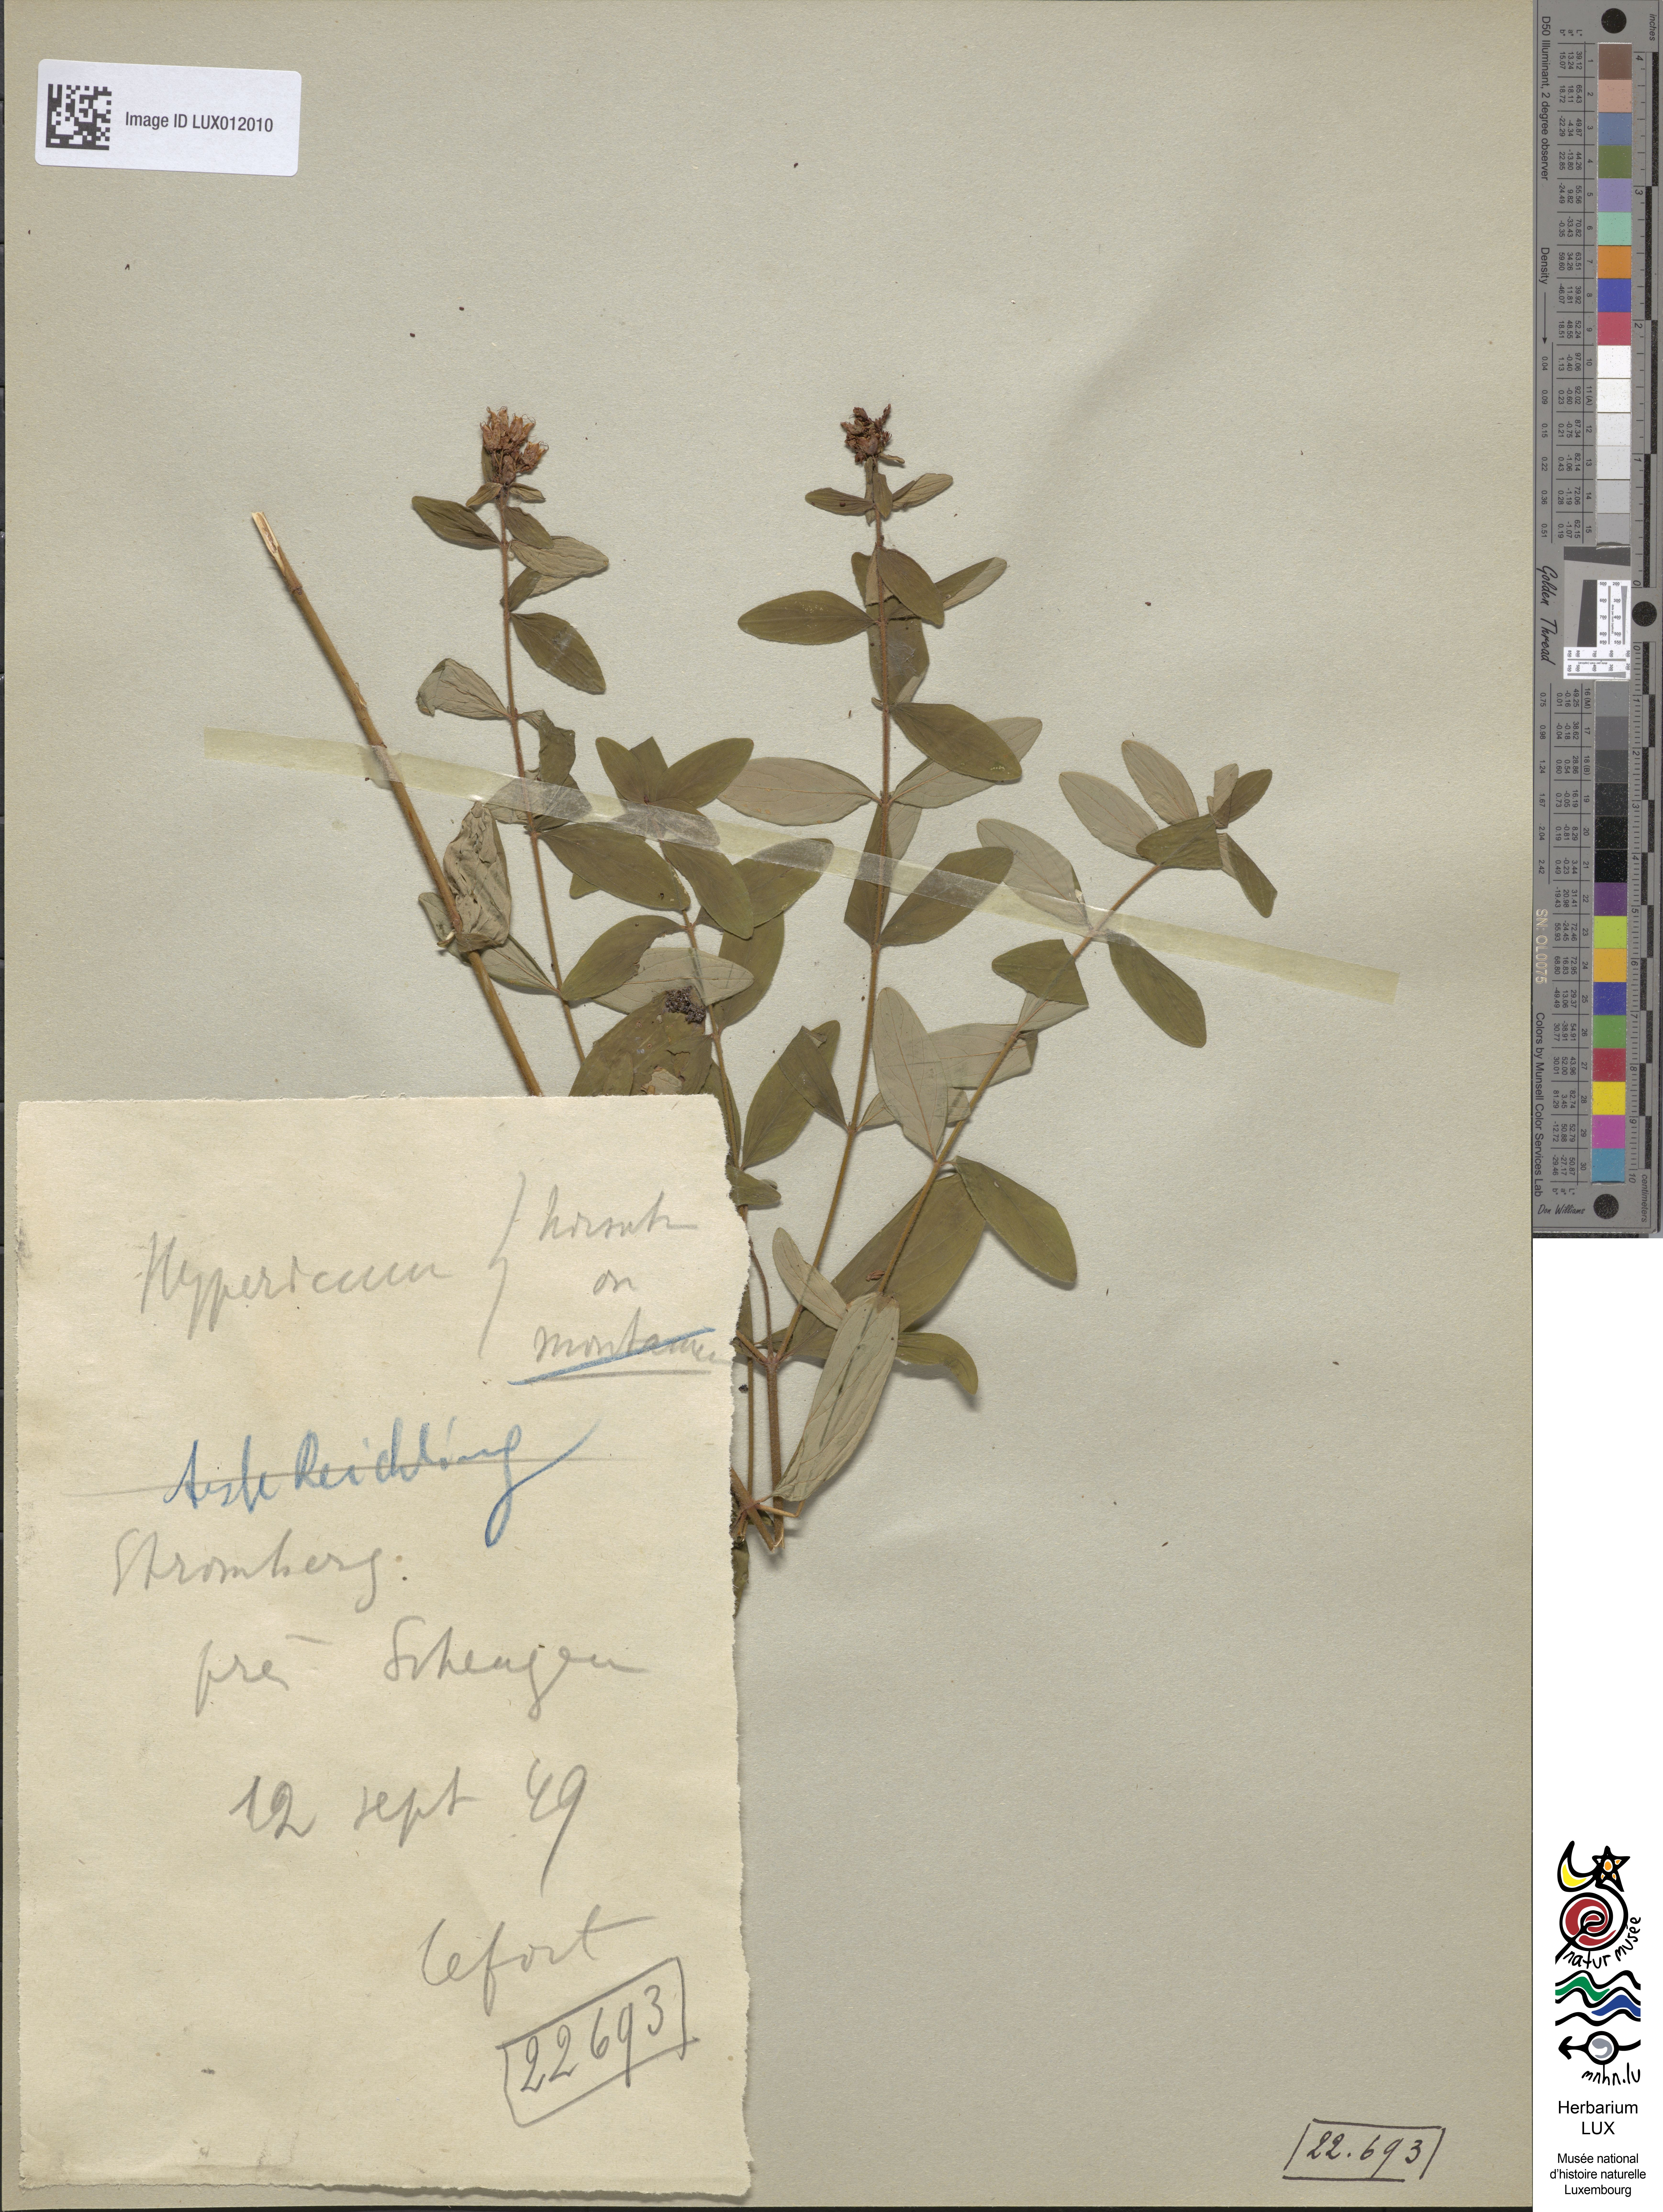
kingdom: Plantae
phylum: Tracheophyta
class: Magnoliopsida
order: Malpighiales
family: Hypericaceae
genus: Hypericum
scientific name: Hypericum hirsutum
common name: Hairy st. john's-wort
